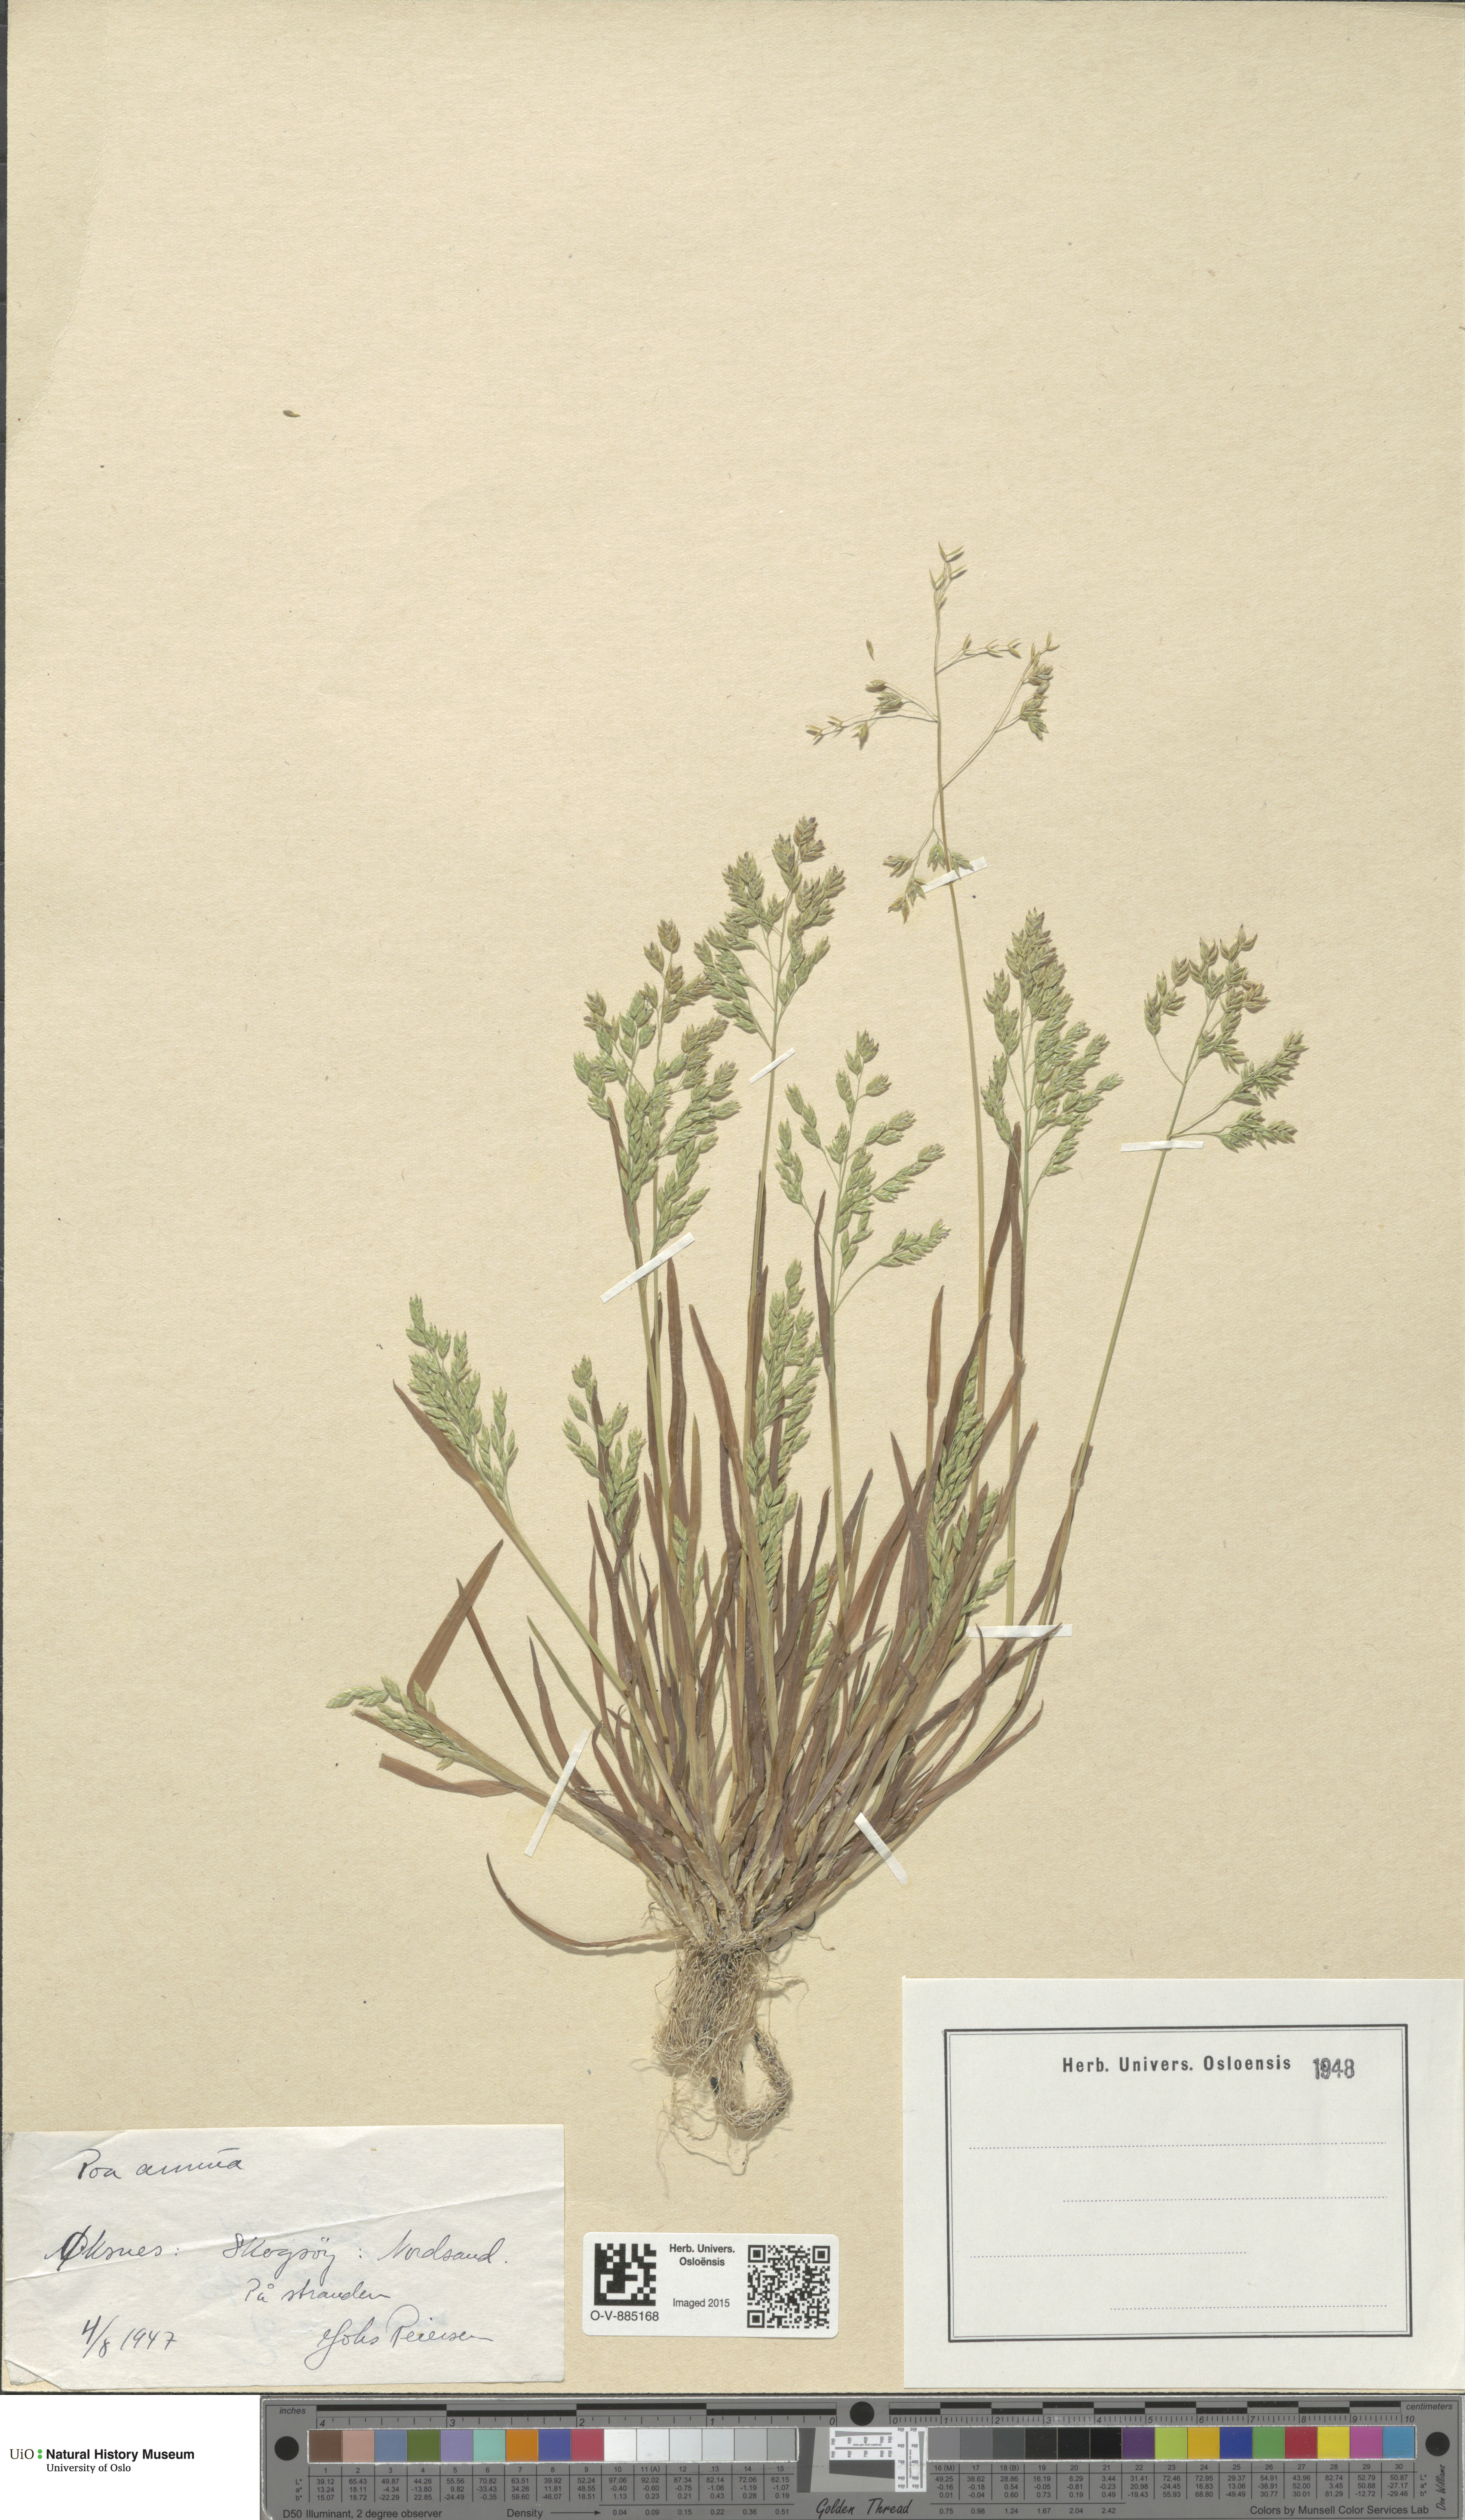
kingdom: Plantae
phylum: Tracheophyta
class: Liliopsida
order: Poales
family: Poaceae
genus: Poa
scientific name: Poa annua
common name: Annual bluegrass
